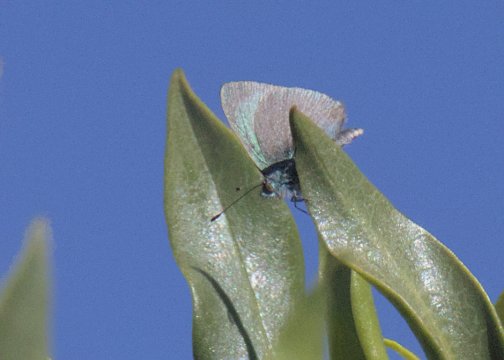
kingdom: Animalia
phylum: Arthropoda
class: Insecta
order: Lepidoptera
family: Lycaenidae
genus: Udara
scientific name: Udara blackburni
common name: Hawaiian Blue
